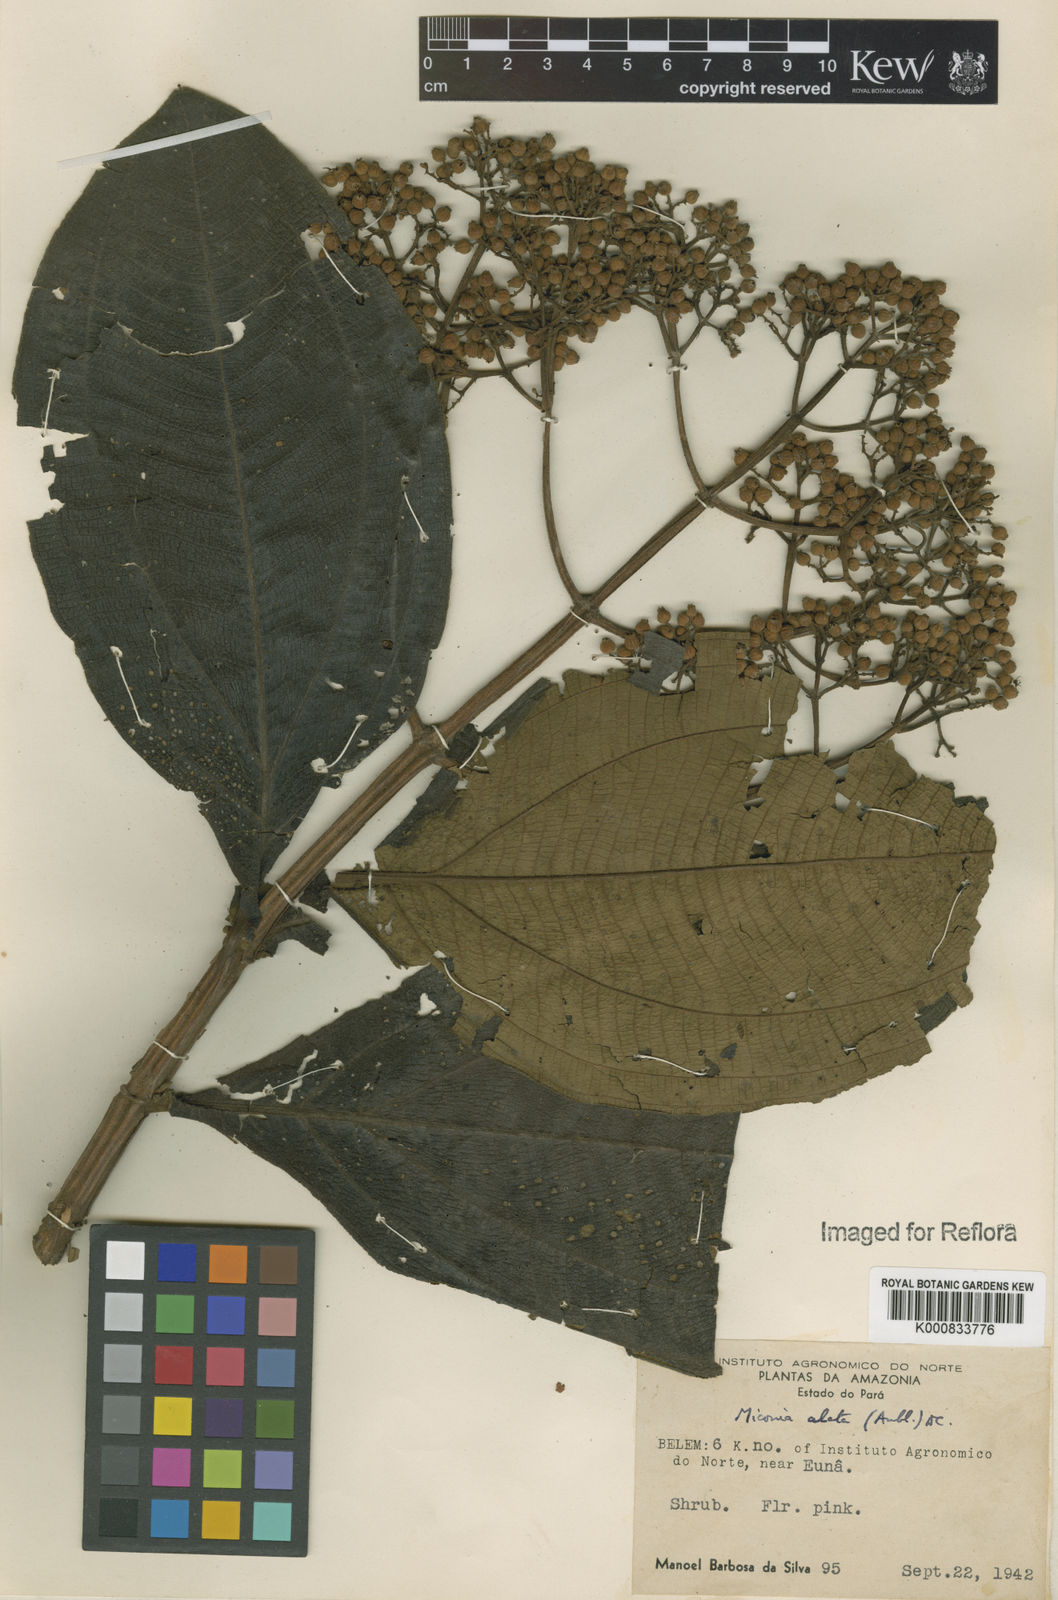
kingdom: Plantae
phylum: Tracheophyta
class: Magnoliopsida
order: Myrtales
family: Melastomataceae
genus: Miconia
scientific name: Miconia alata
